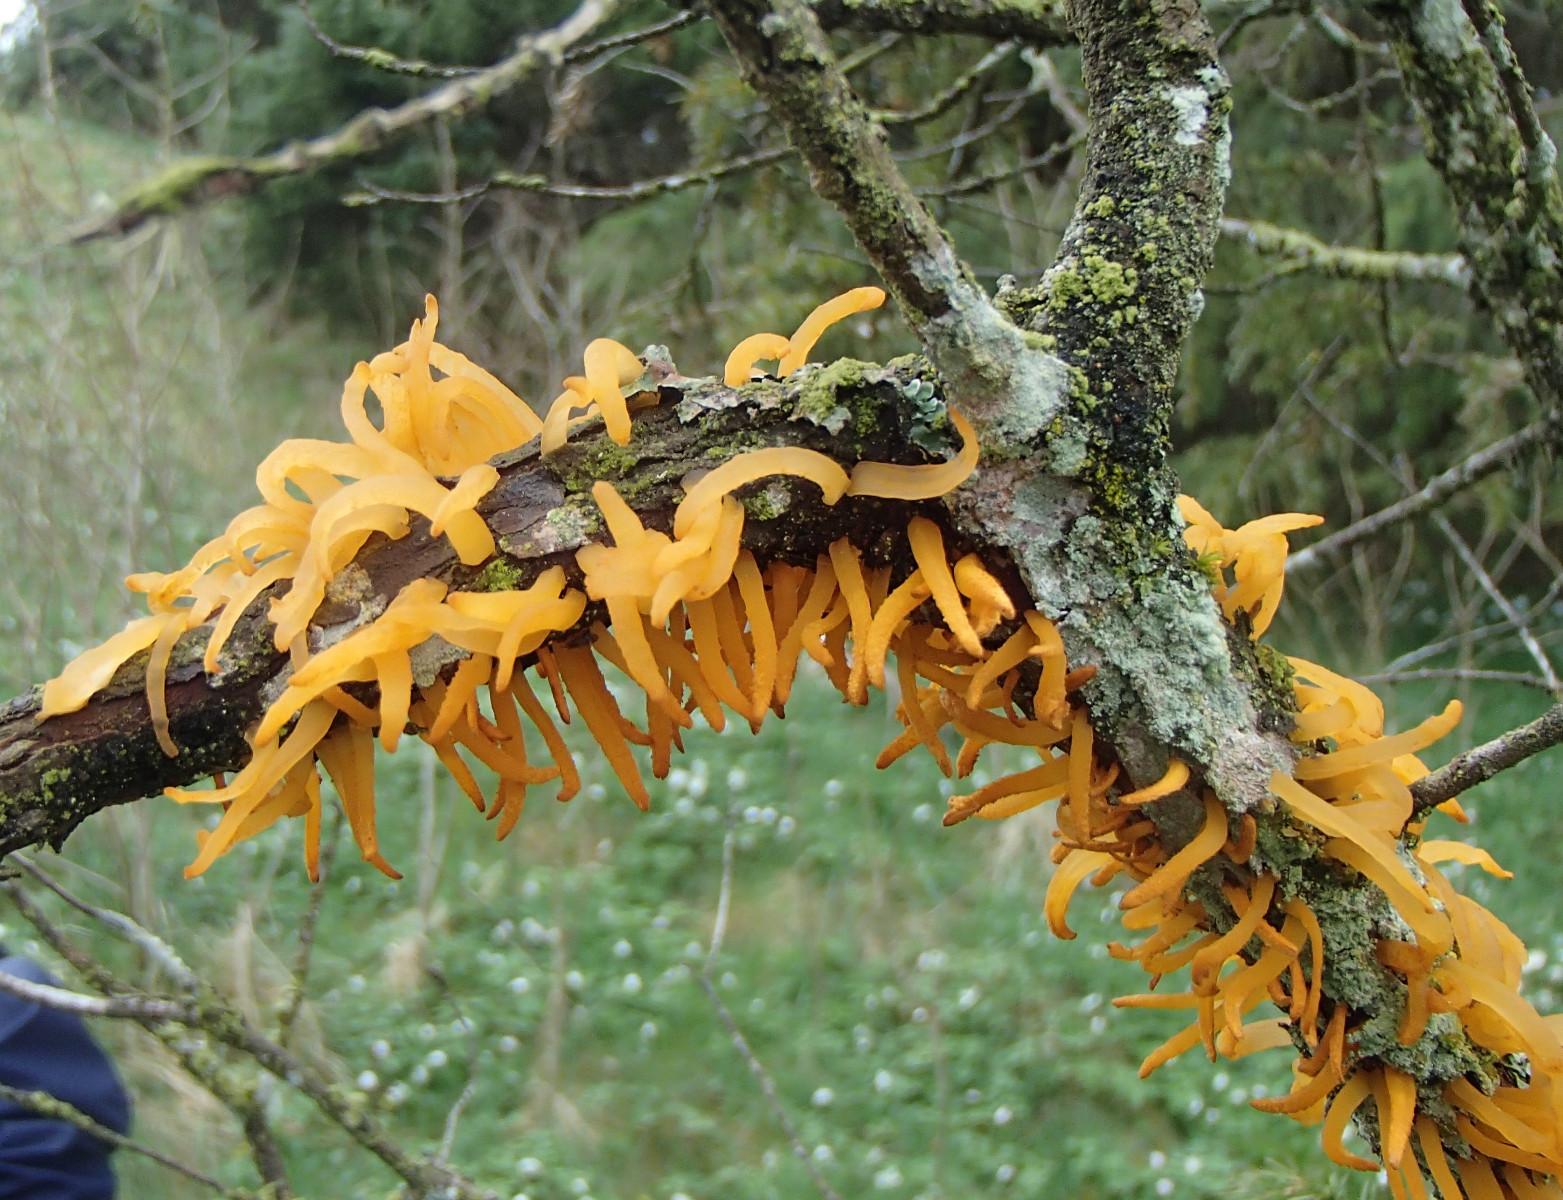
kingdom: Fungi
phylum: Basidiomycota
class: Pucciniomycetes
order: Pucciniales
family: Gymnosporangiaceae
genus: Gymnosporangium
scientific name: Gymnosporangium clavariiforme
